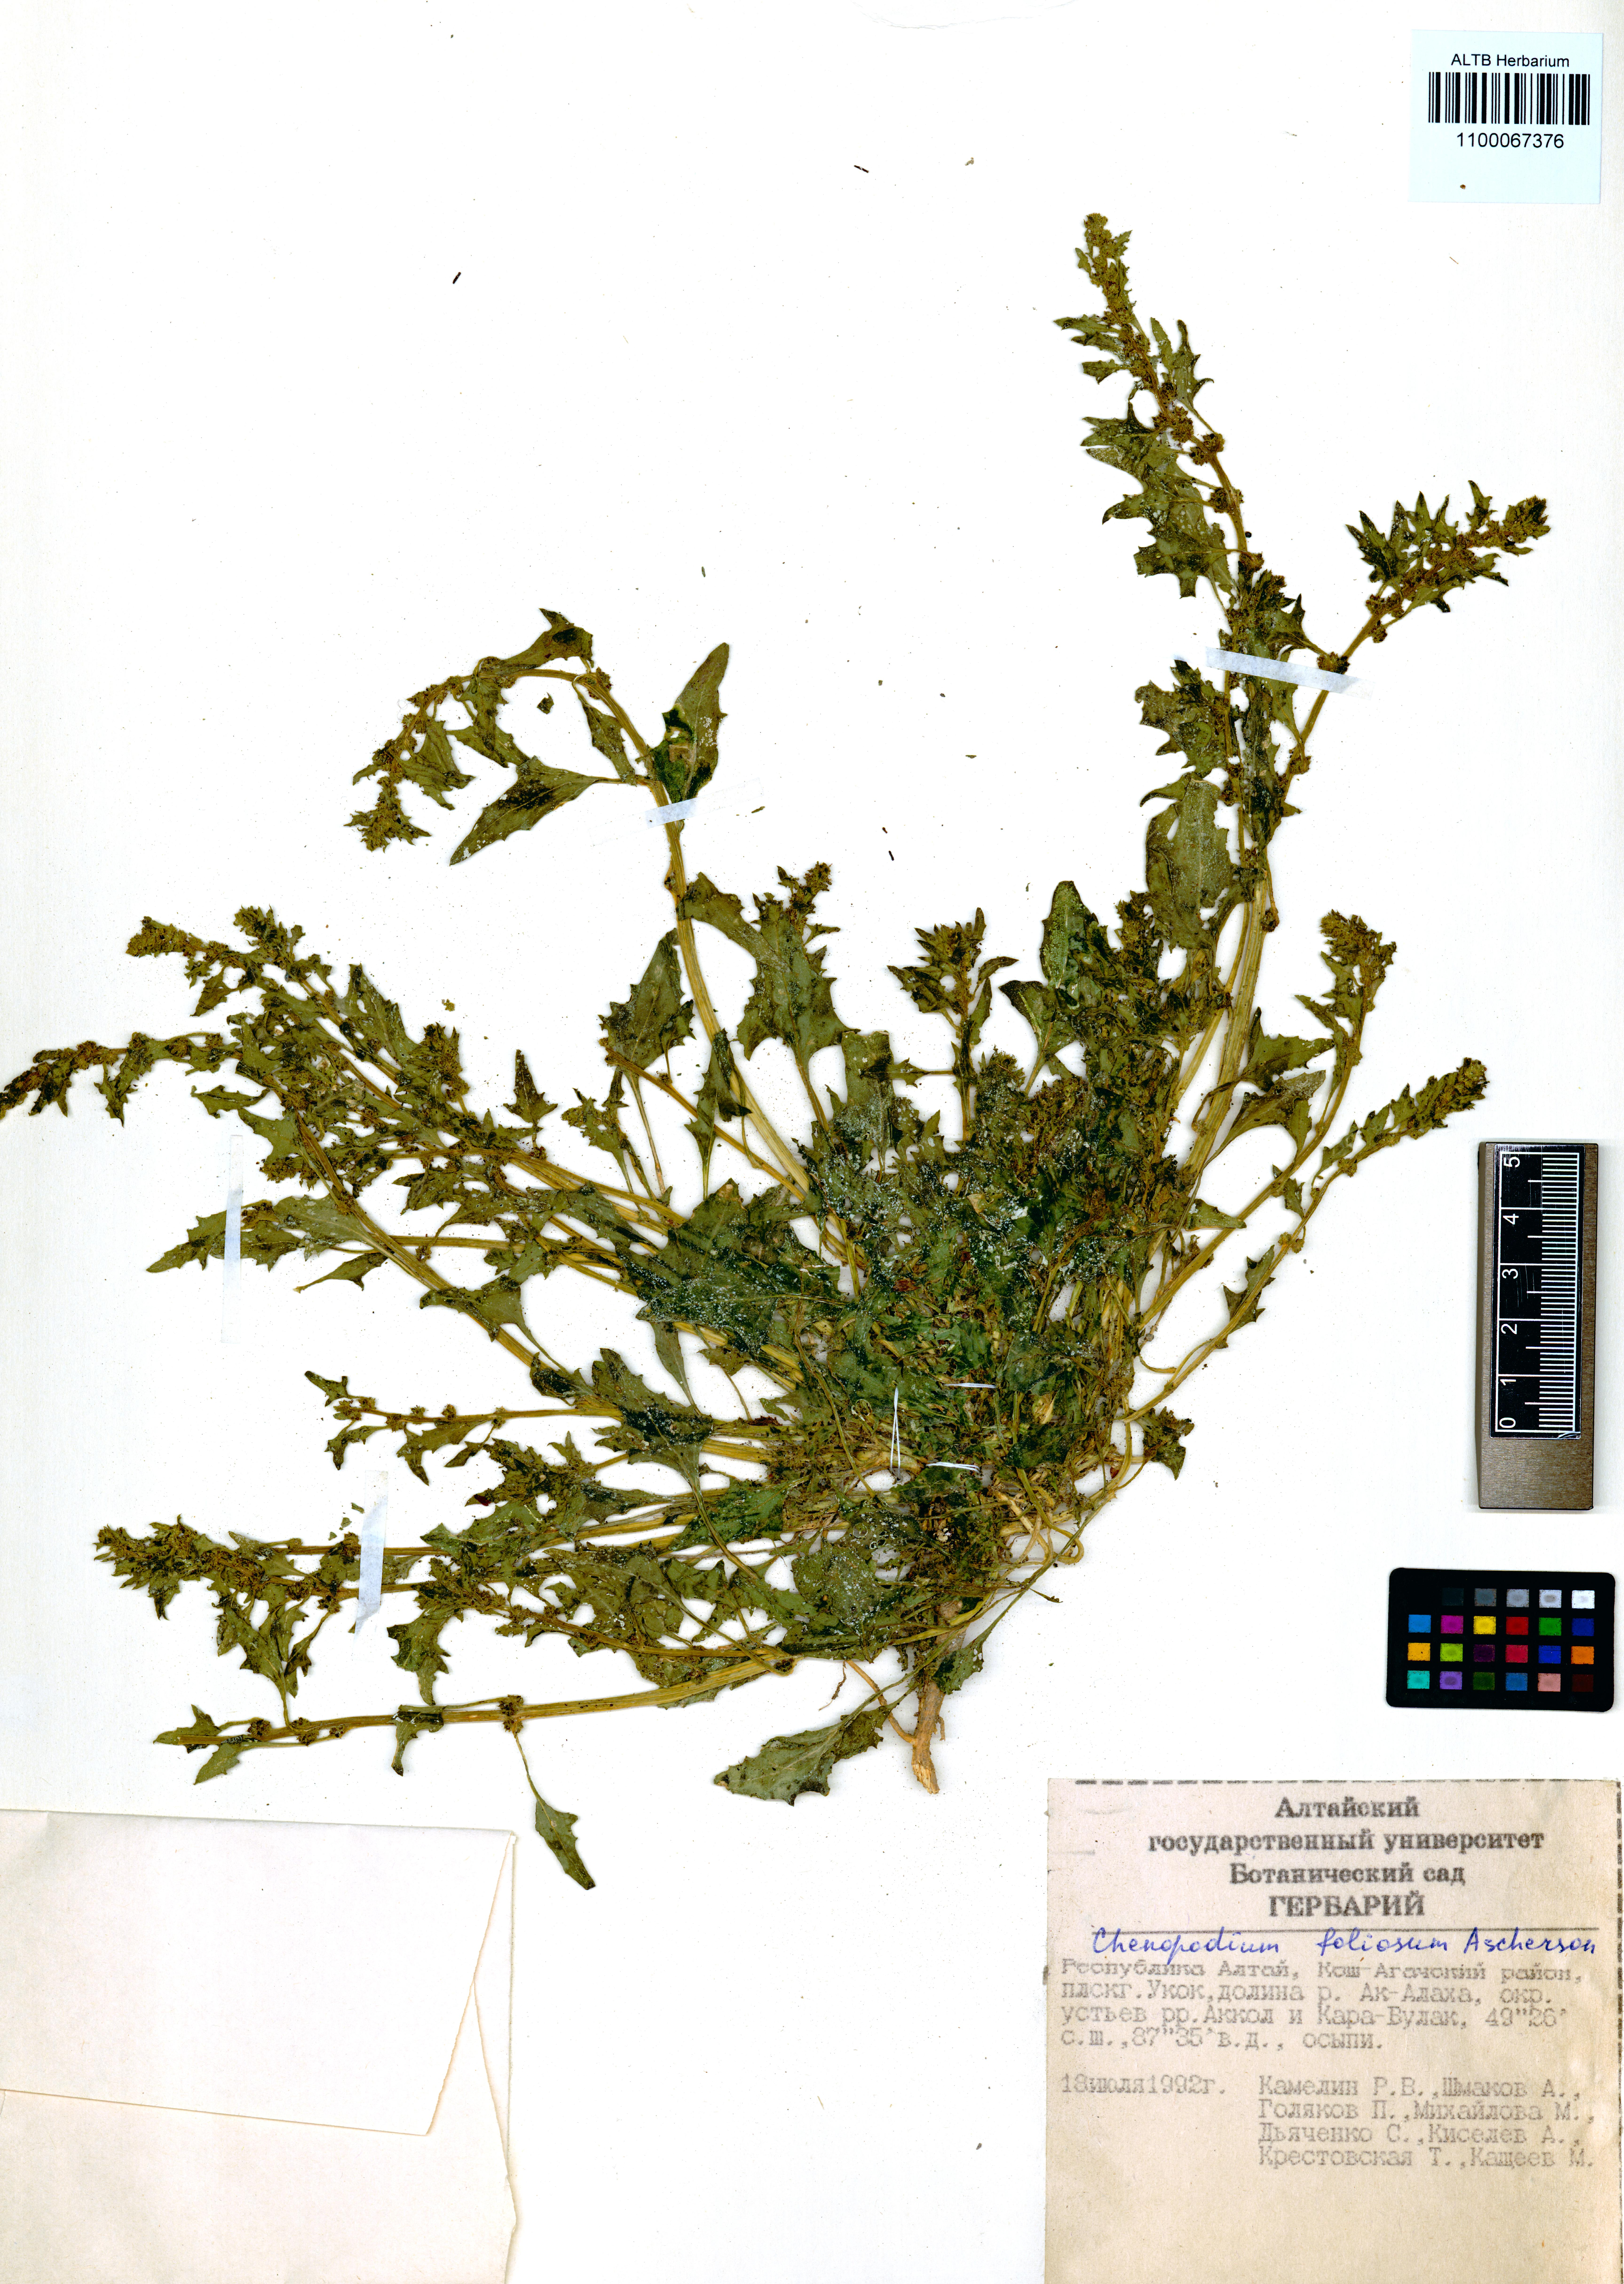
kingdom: Plantae
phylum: Tracheophyta
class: Magnoliopsida
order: Caryophyllales
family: Amaranthaceae
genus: Blitum
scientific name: Blitum virgatum
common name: Strawberry goosefoot
